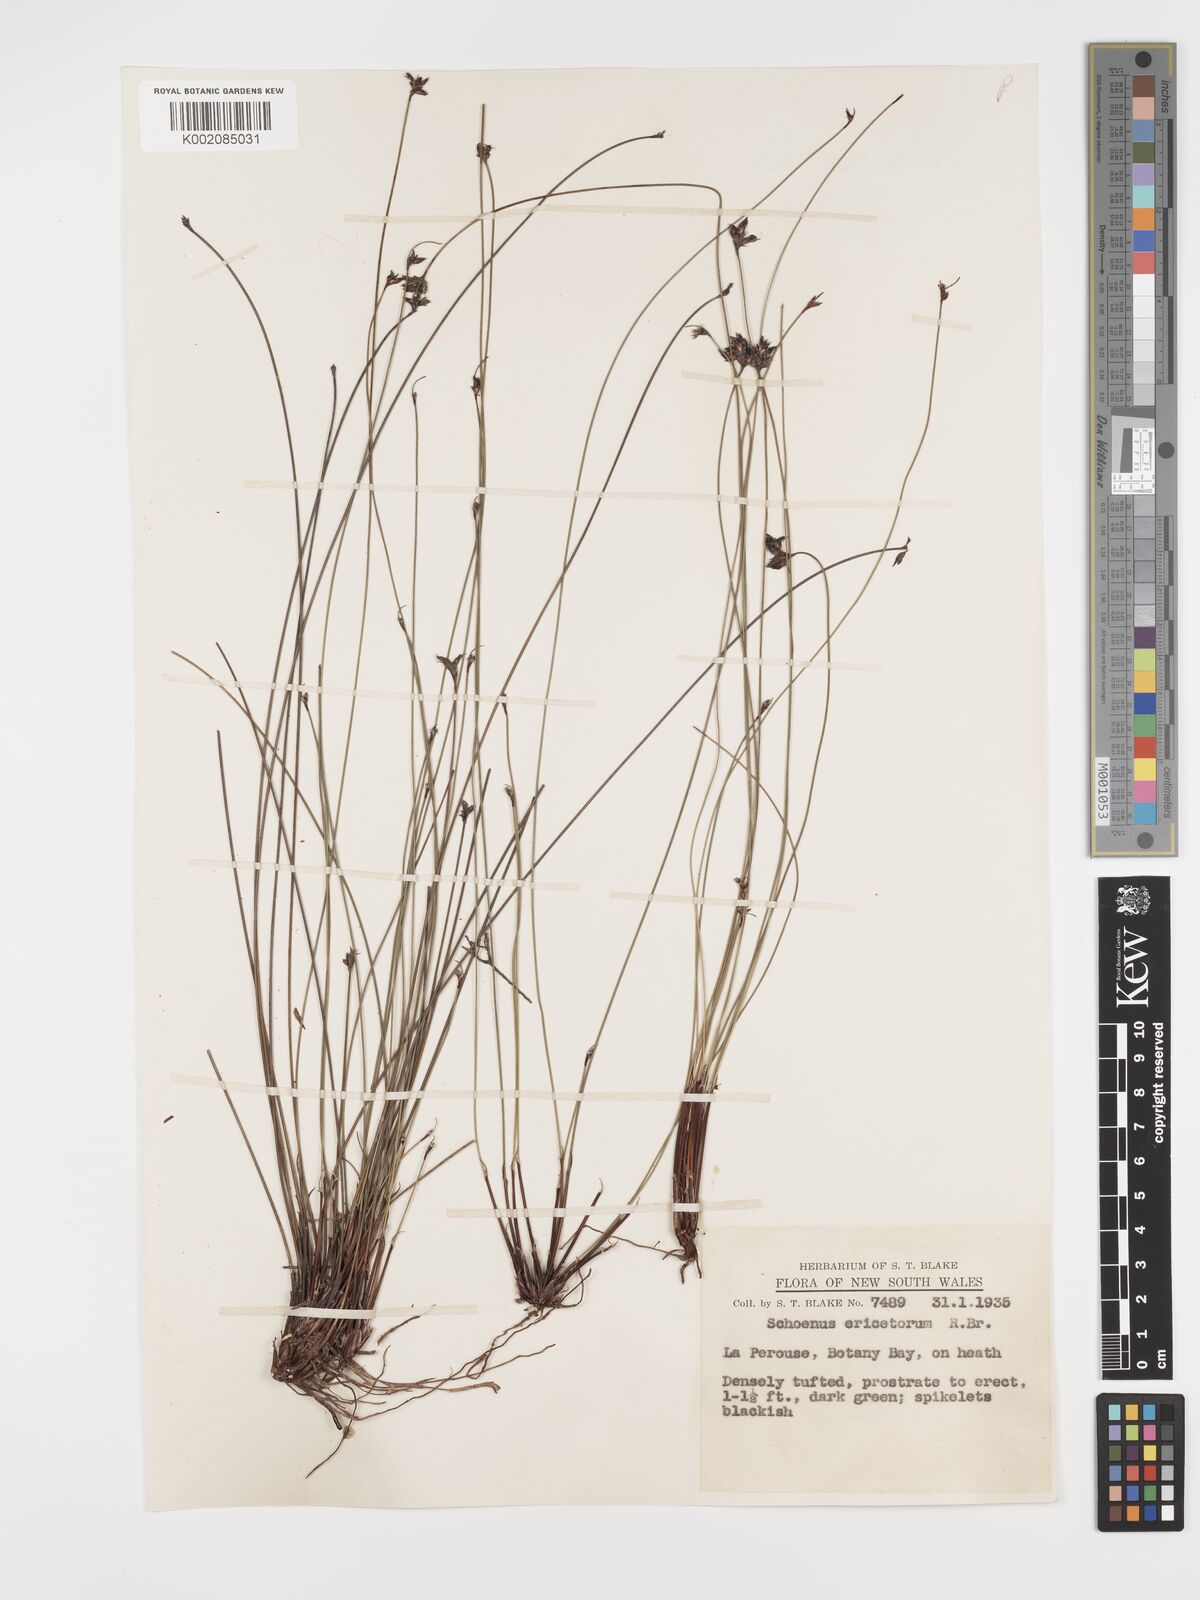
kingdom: Plantae
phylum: Tracheophyta
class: Liliopsida
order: Poales
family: Cyperaceae
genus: Schoenus
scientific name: Schoenus ericetorum
